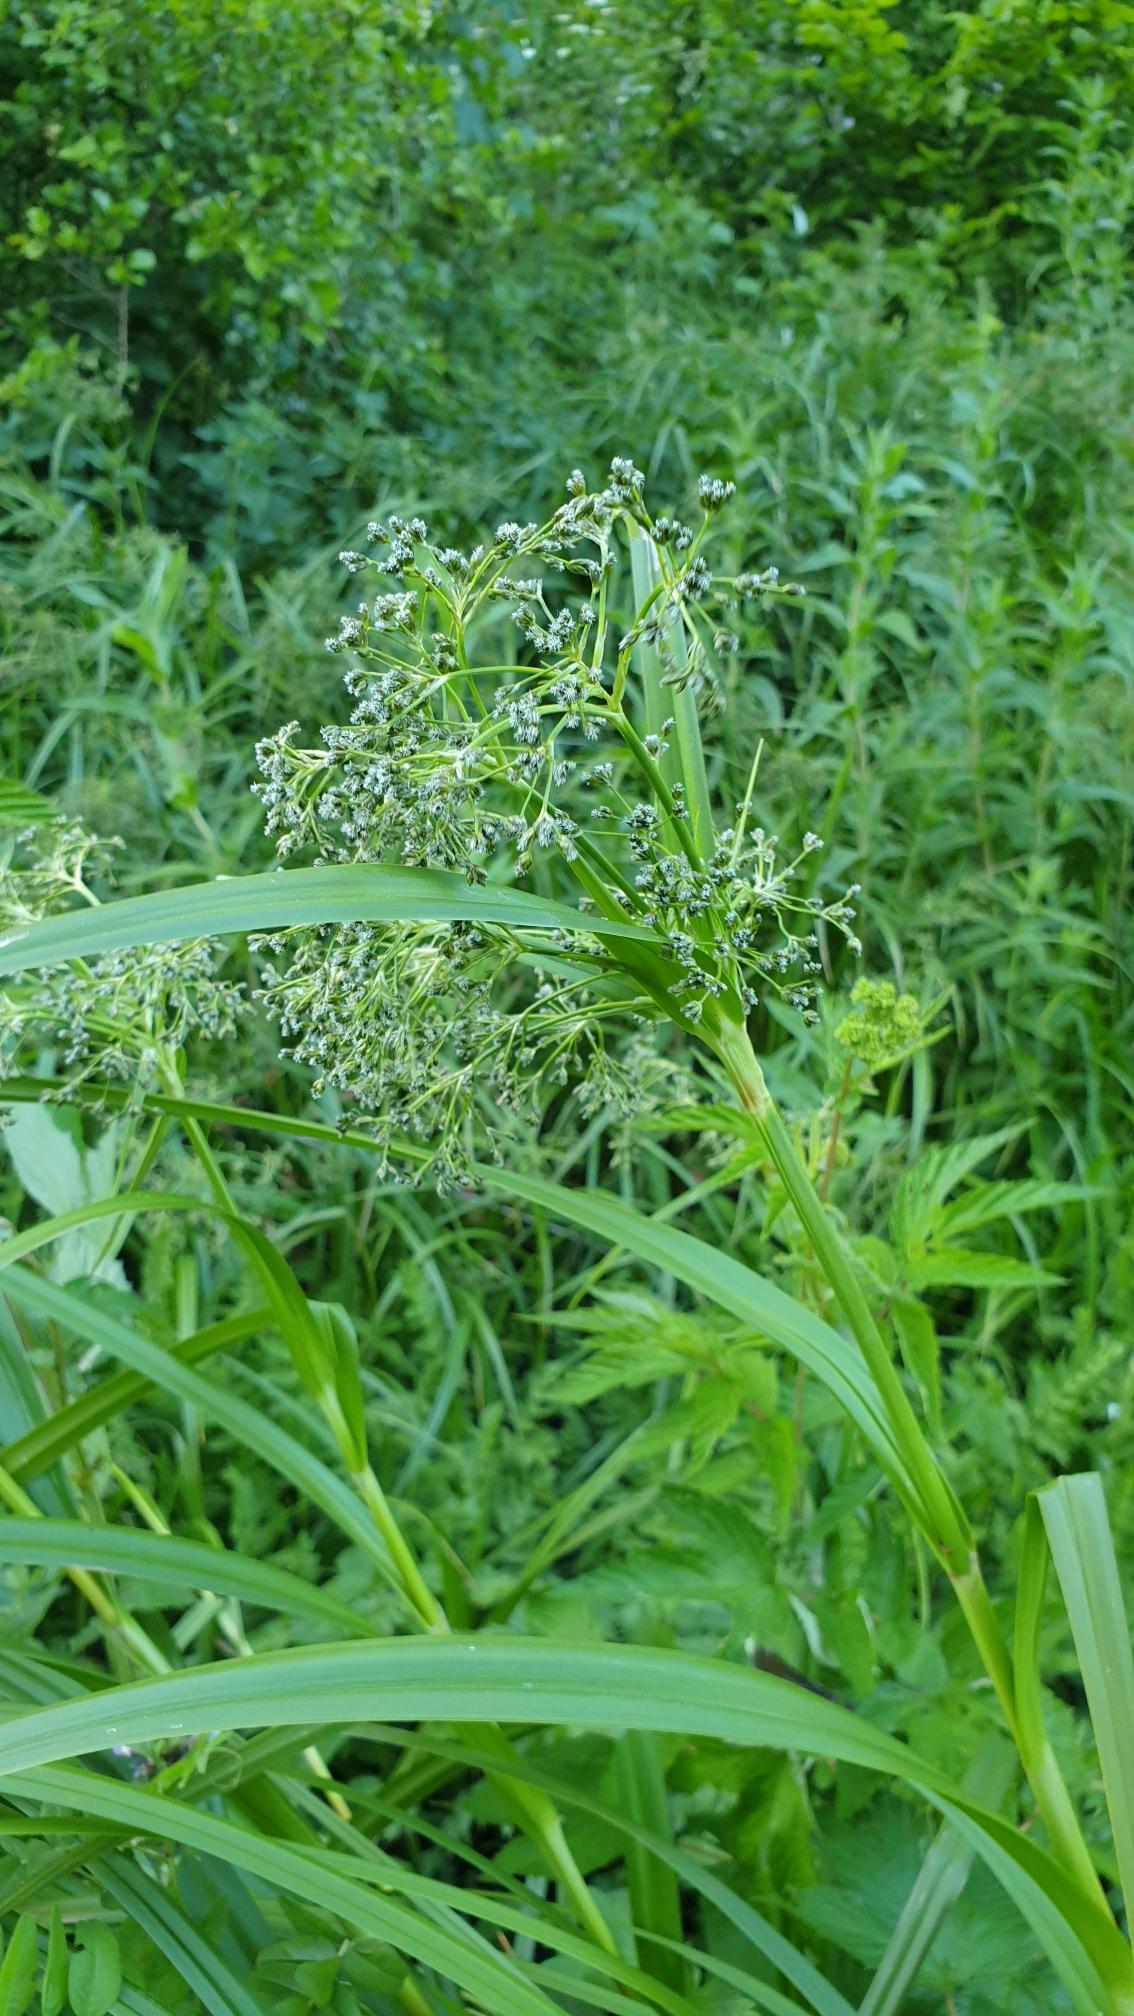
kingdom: Plantae
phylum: Tracheophyta
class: Liliopsida
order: Poales
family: Cyperaceae
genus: Scirpus
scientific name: Scirpus sylvaticus
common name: Skov-kogleaks
